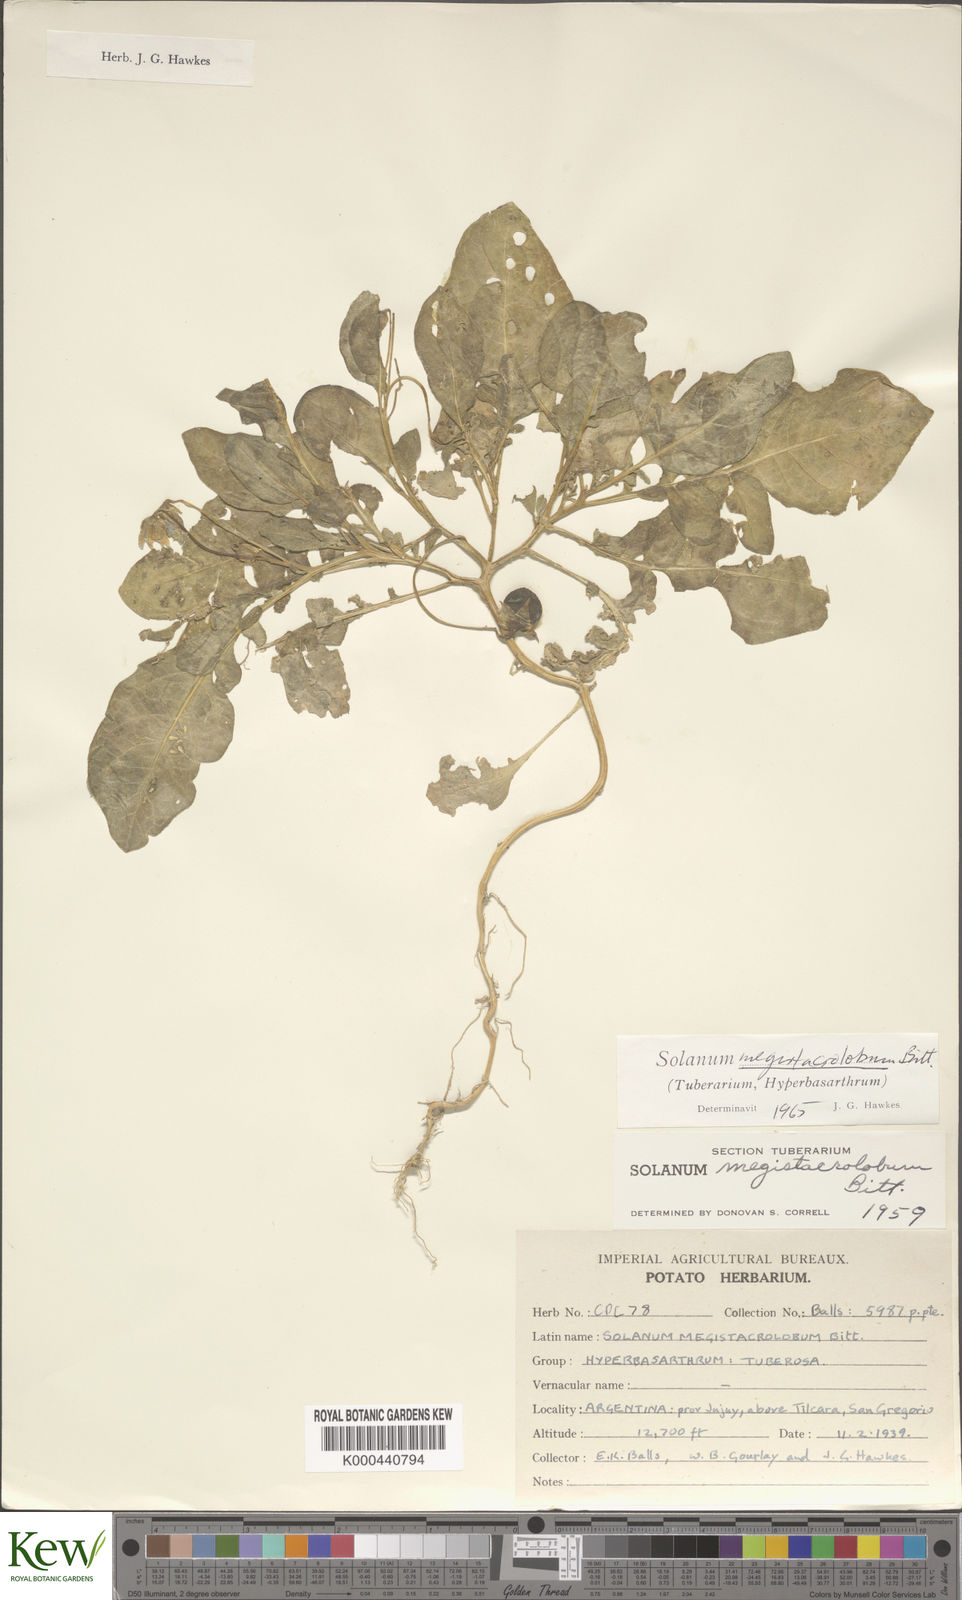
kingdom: Plantae
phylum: Tracheophyta
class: Magnoliopsida
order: Solanales
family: Solanaceae
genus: Solanum
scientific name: Solanum boliviense
